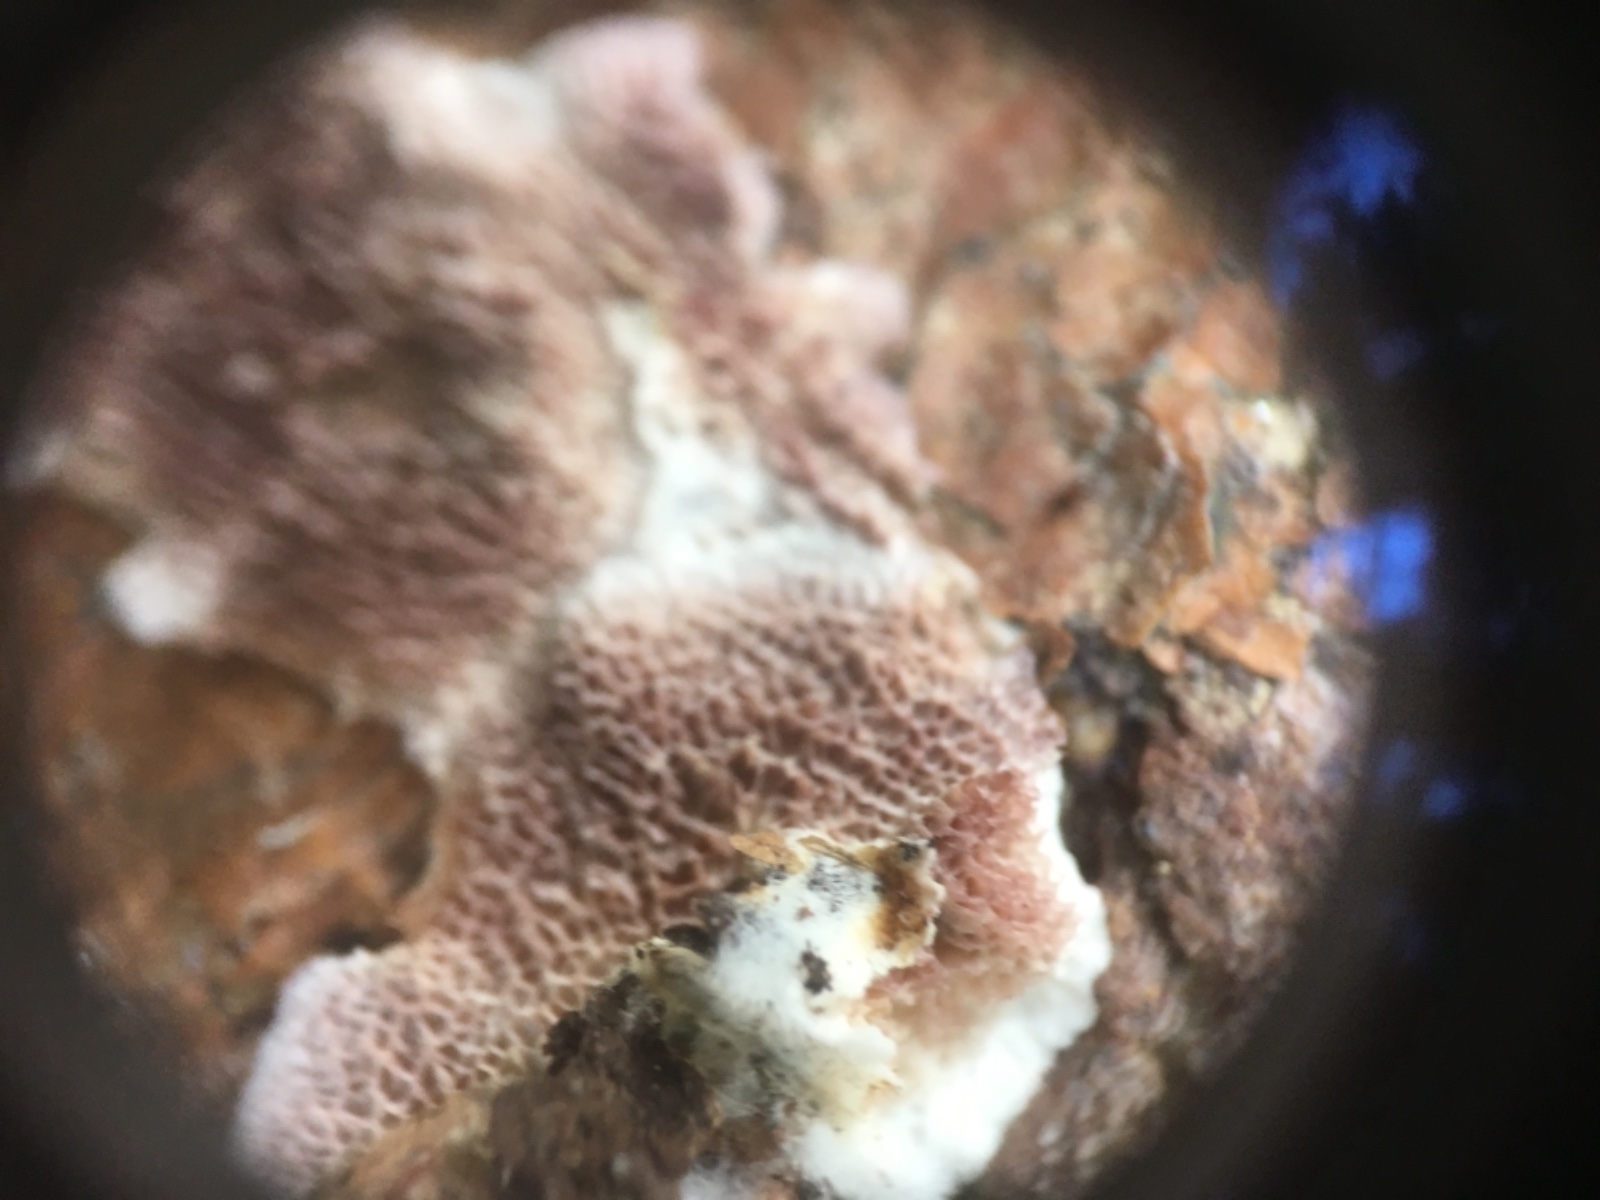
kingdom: Fungi
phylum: Basidiomycota
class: Agaricomycetes
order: Hymenochaetales
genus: Trichaptum
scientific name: Trichaptum abietinum
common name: almindelig violporesvamp
